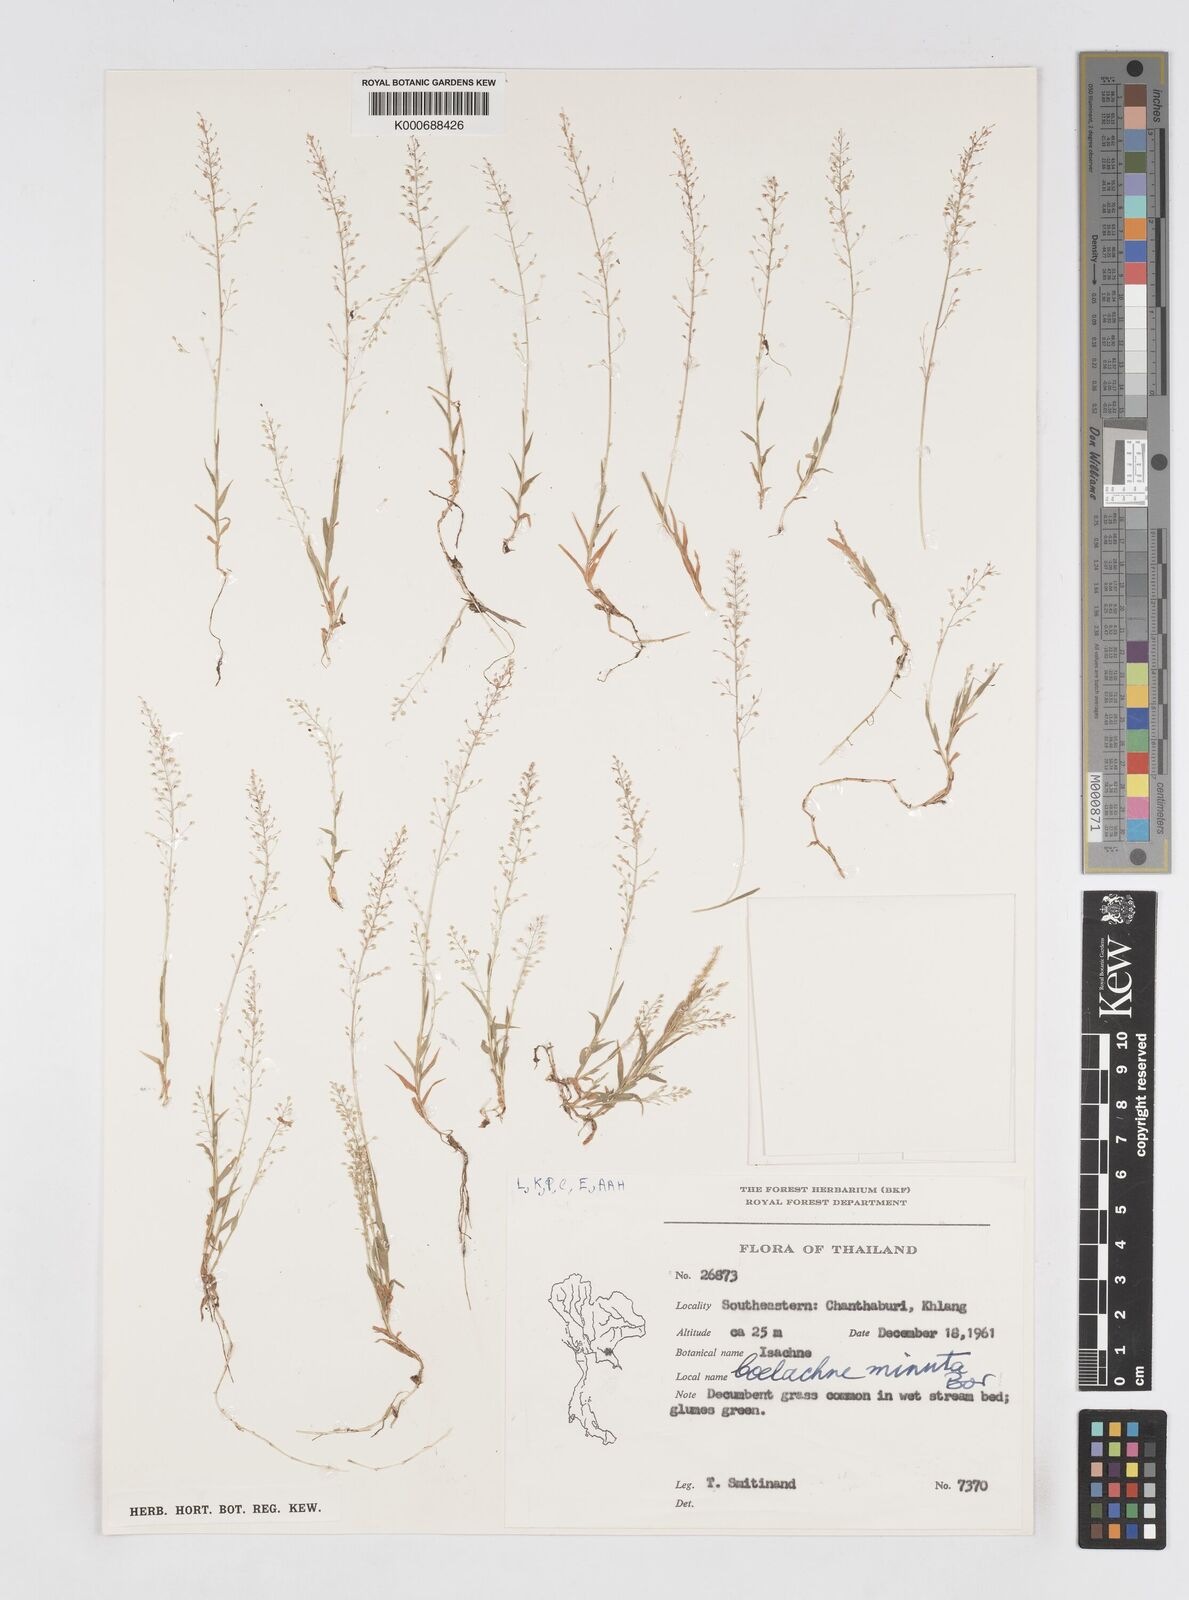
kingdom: Plantae
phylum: Tracheophyta
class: Liliopsida
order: Poales
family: Poaceae
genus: Coelachne
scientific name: Coelachne minuta
